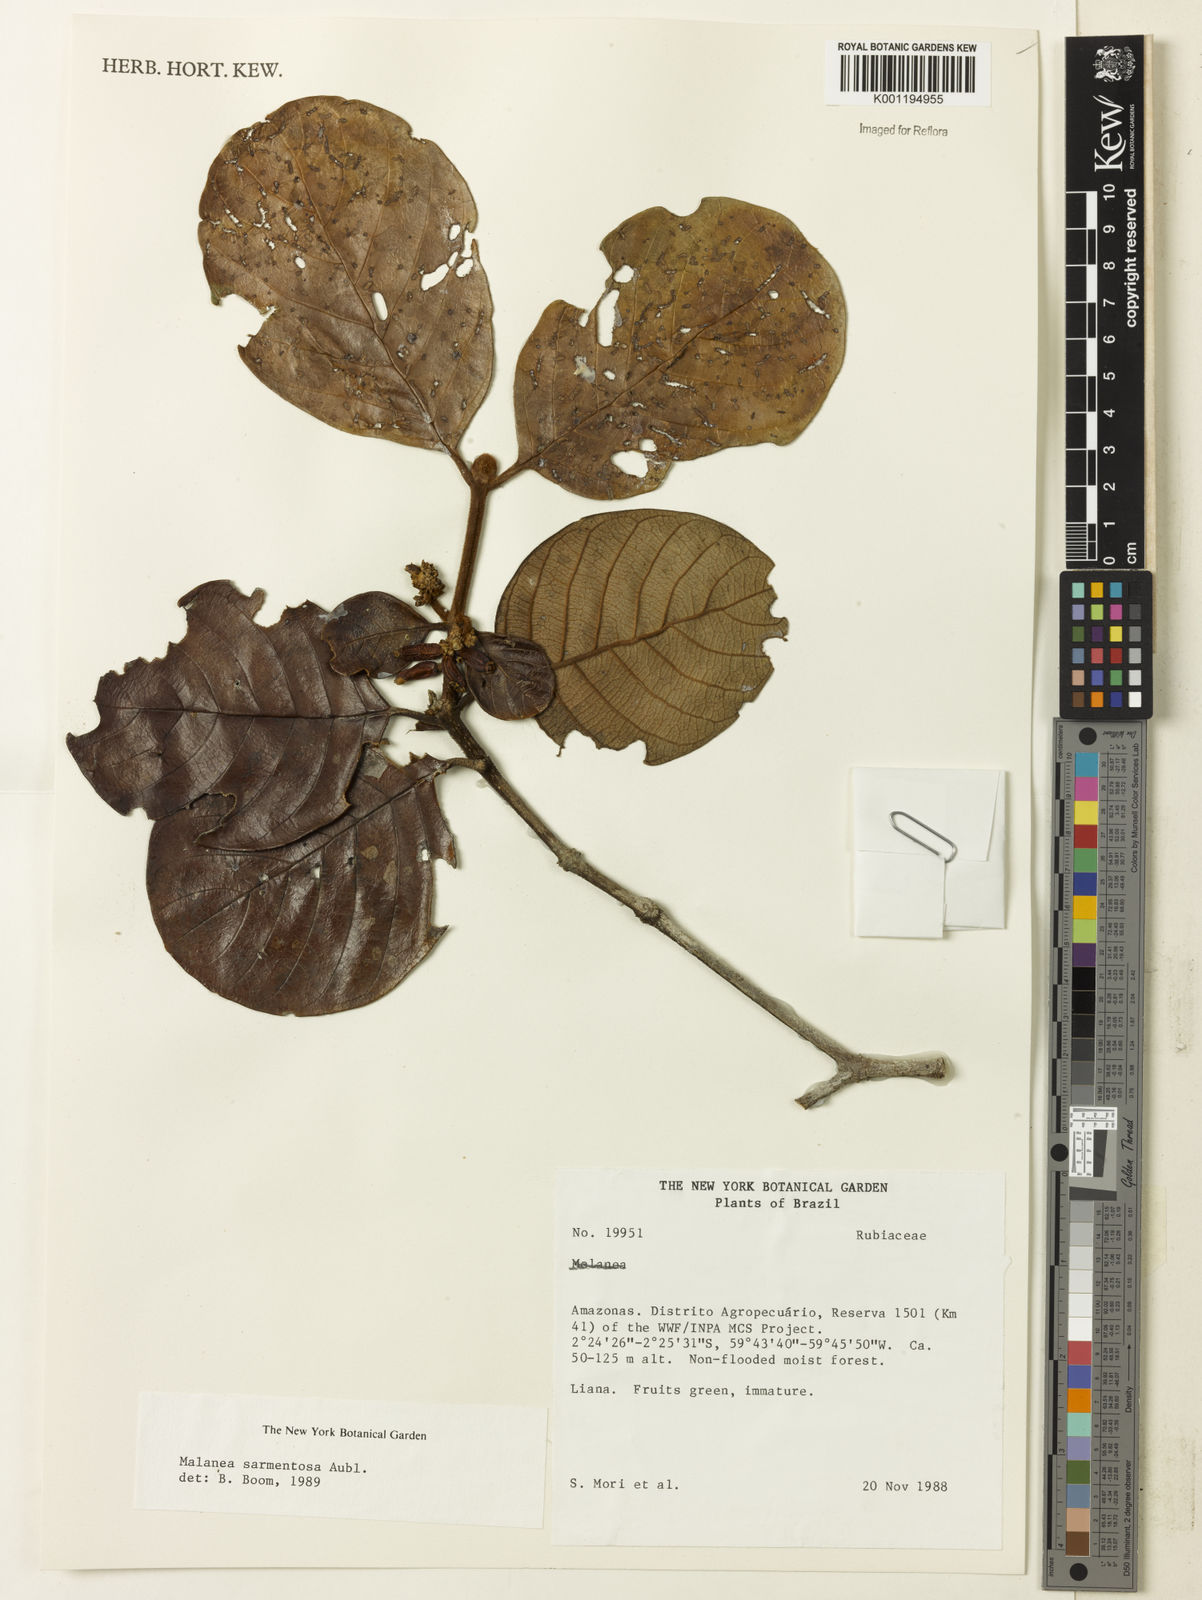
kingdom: Plantae
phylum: Tracheophyta
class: Magnoliopsida
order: Gentianales
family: Rubiaceae
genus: Malanea
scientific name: Malanea sarmentosa
